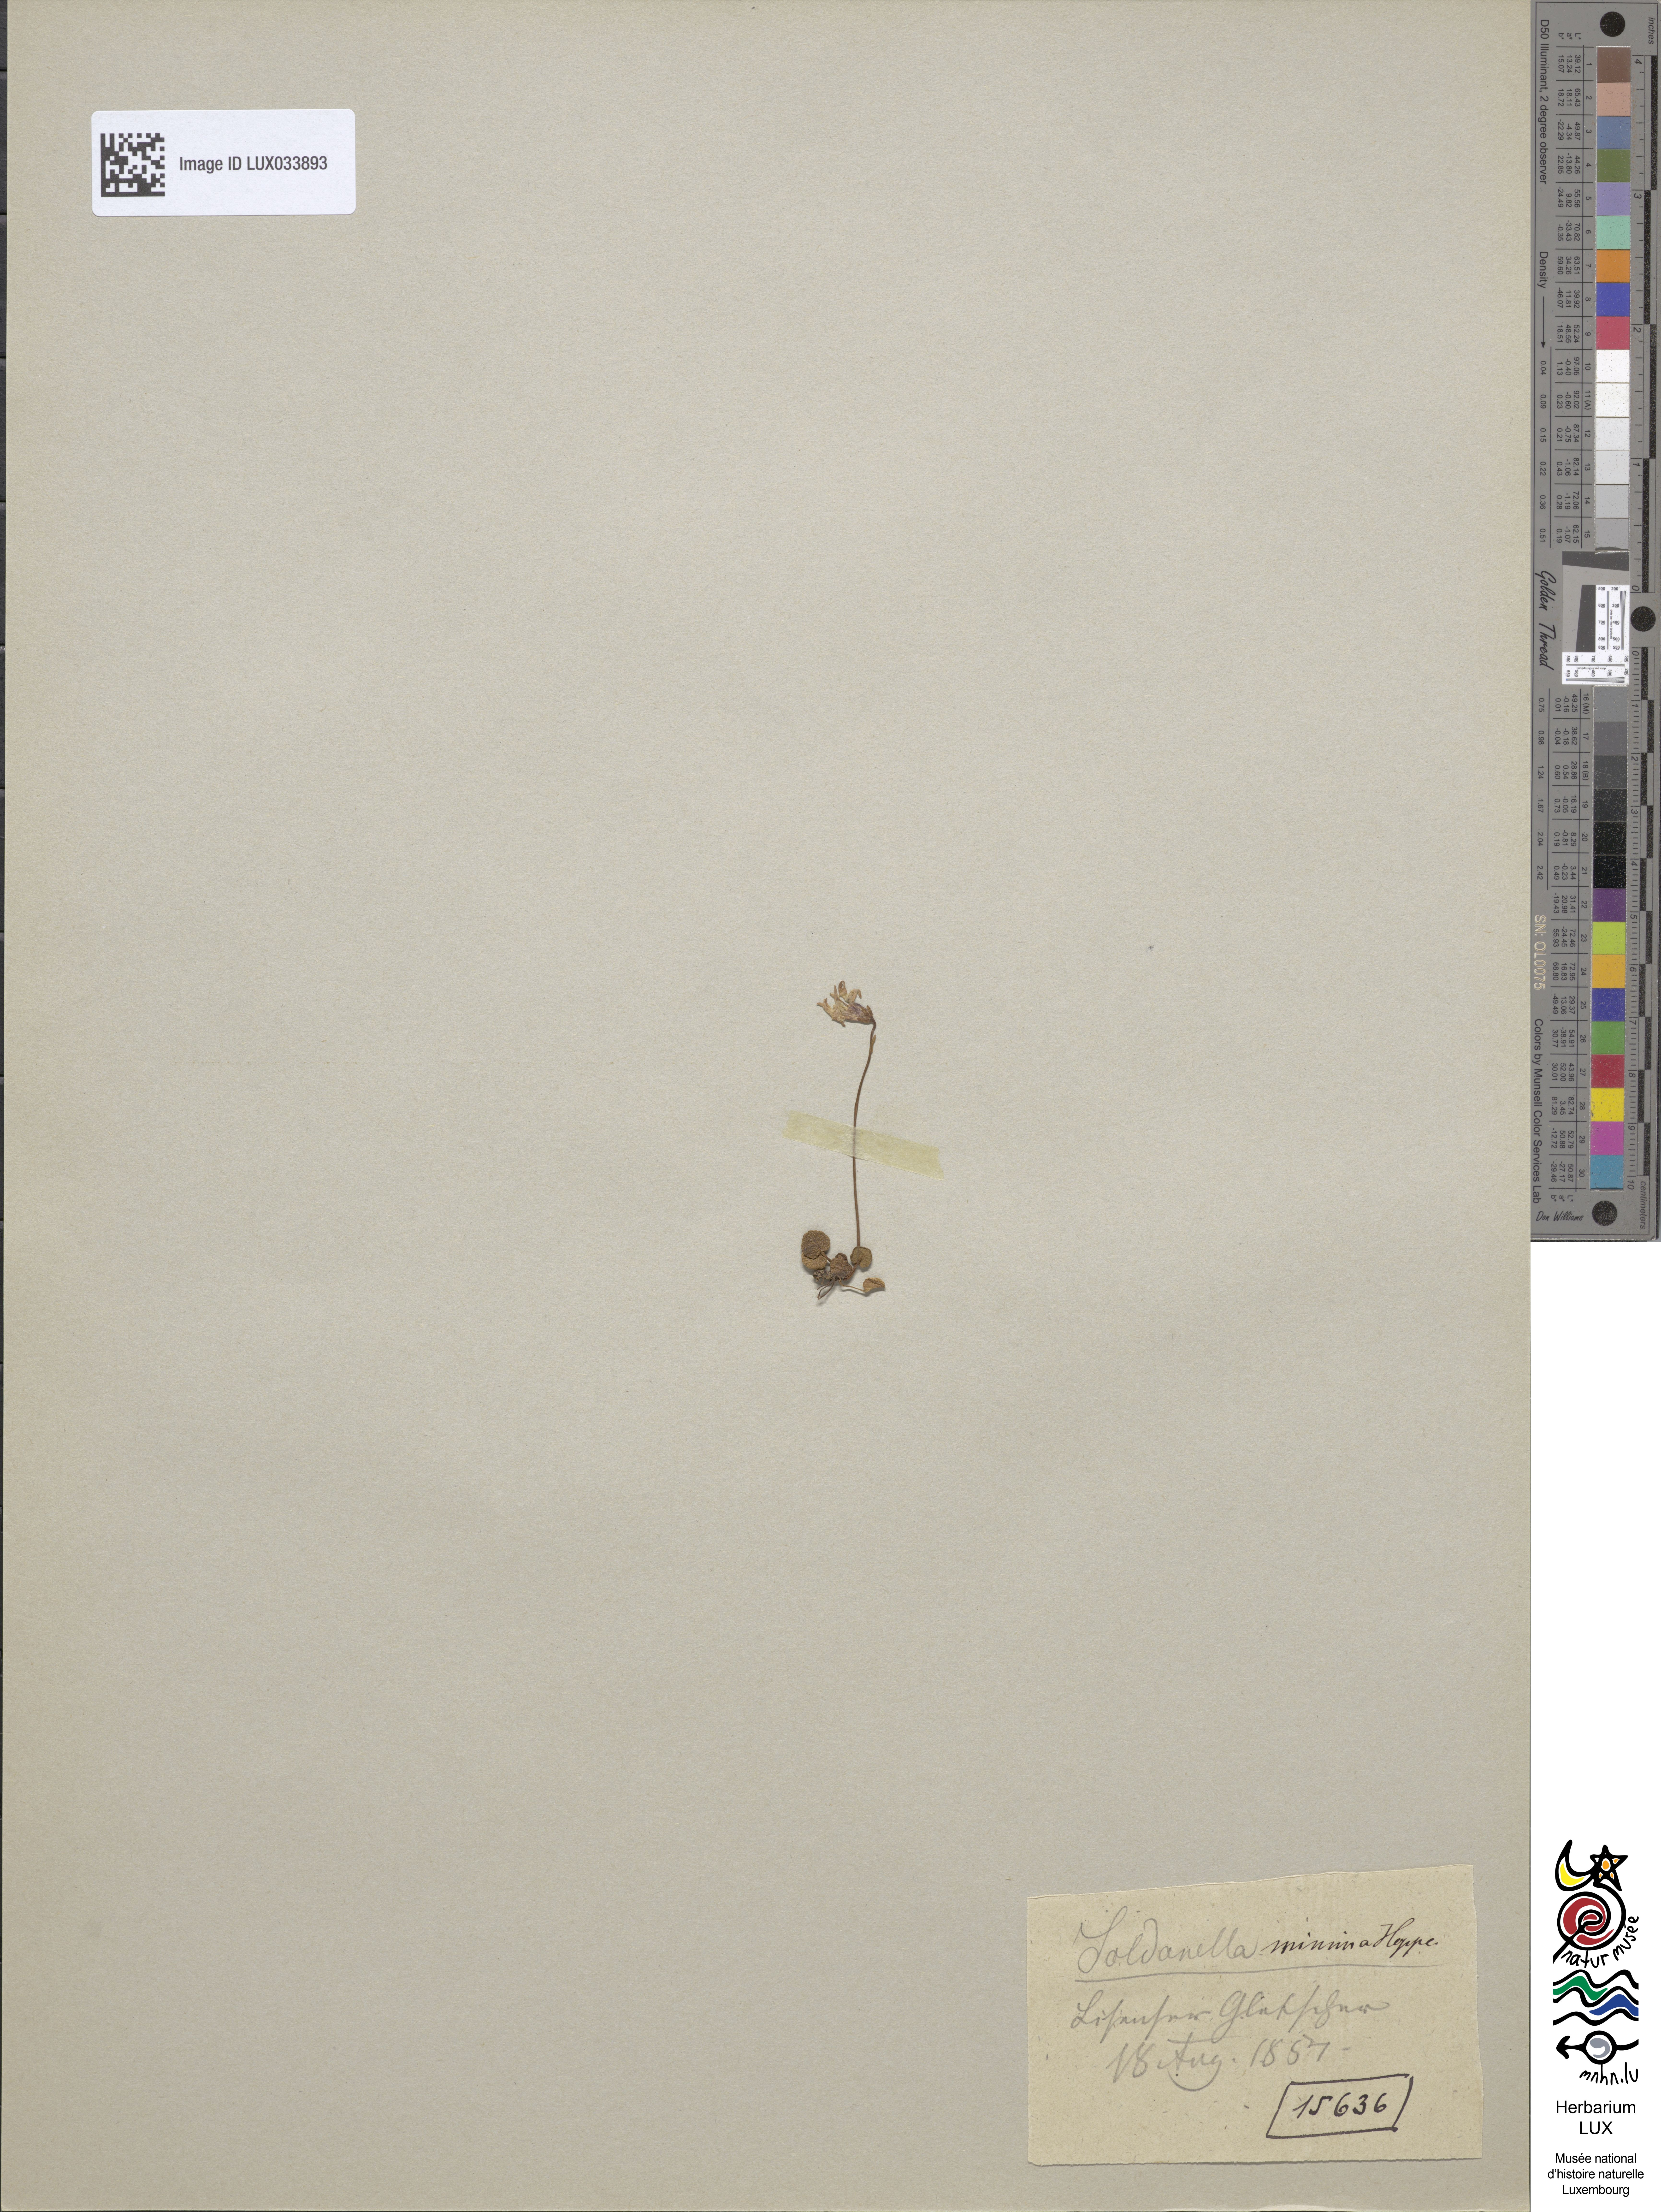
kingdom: Plantae
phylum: Tracheophyta
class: Magnoliopsida
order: Ericales
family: Primulaceae
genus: Soldanella
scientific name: Soldanella minima
